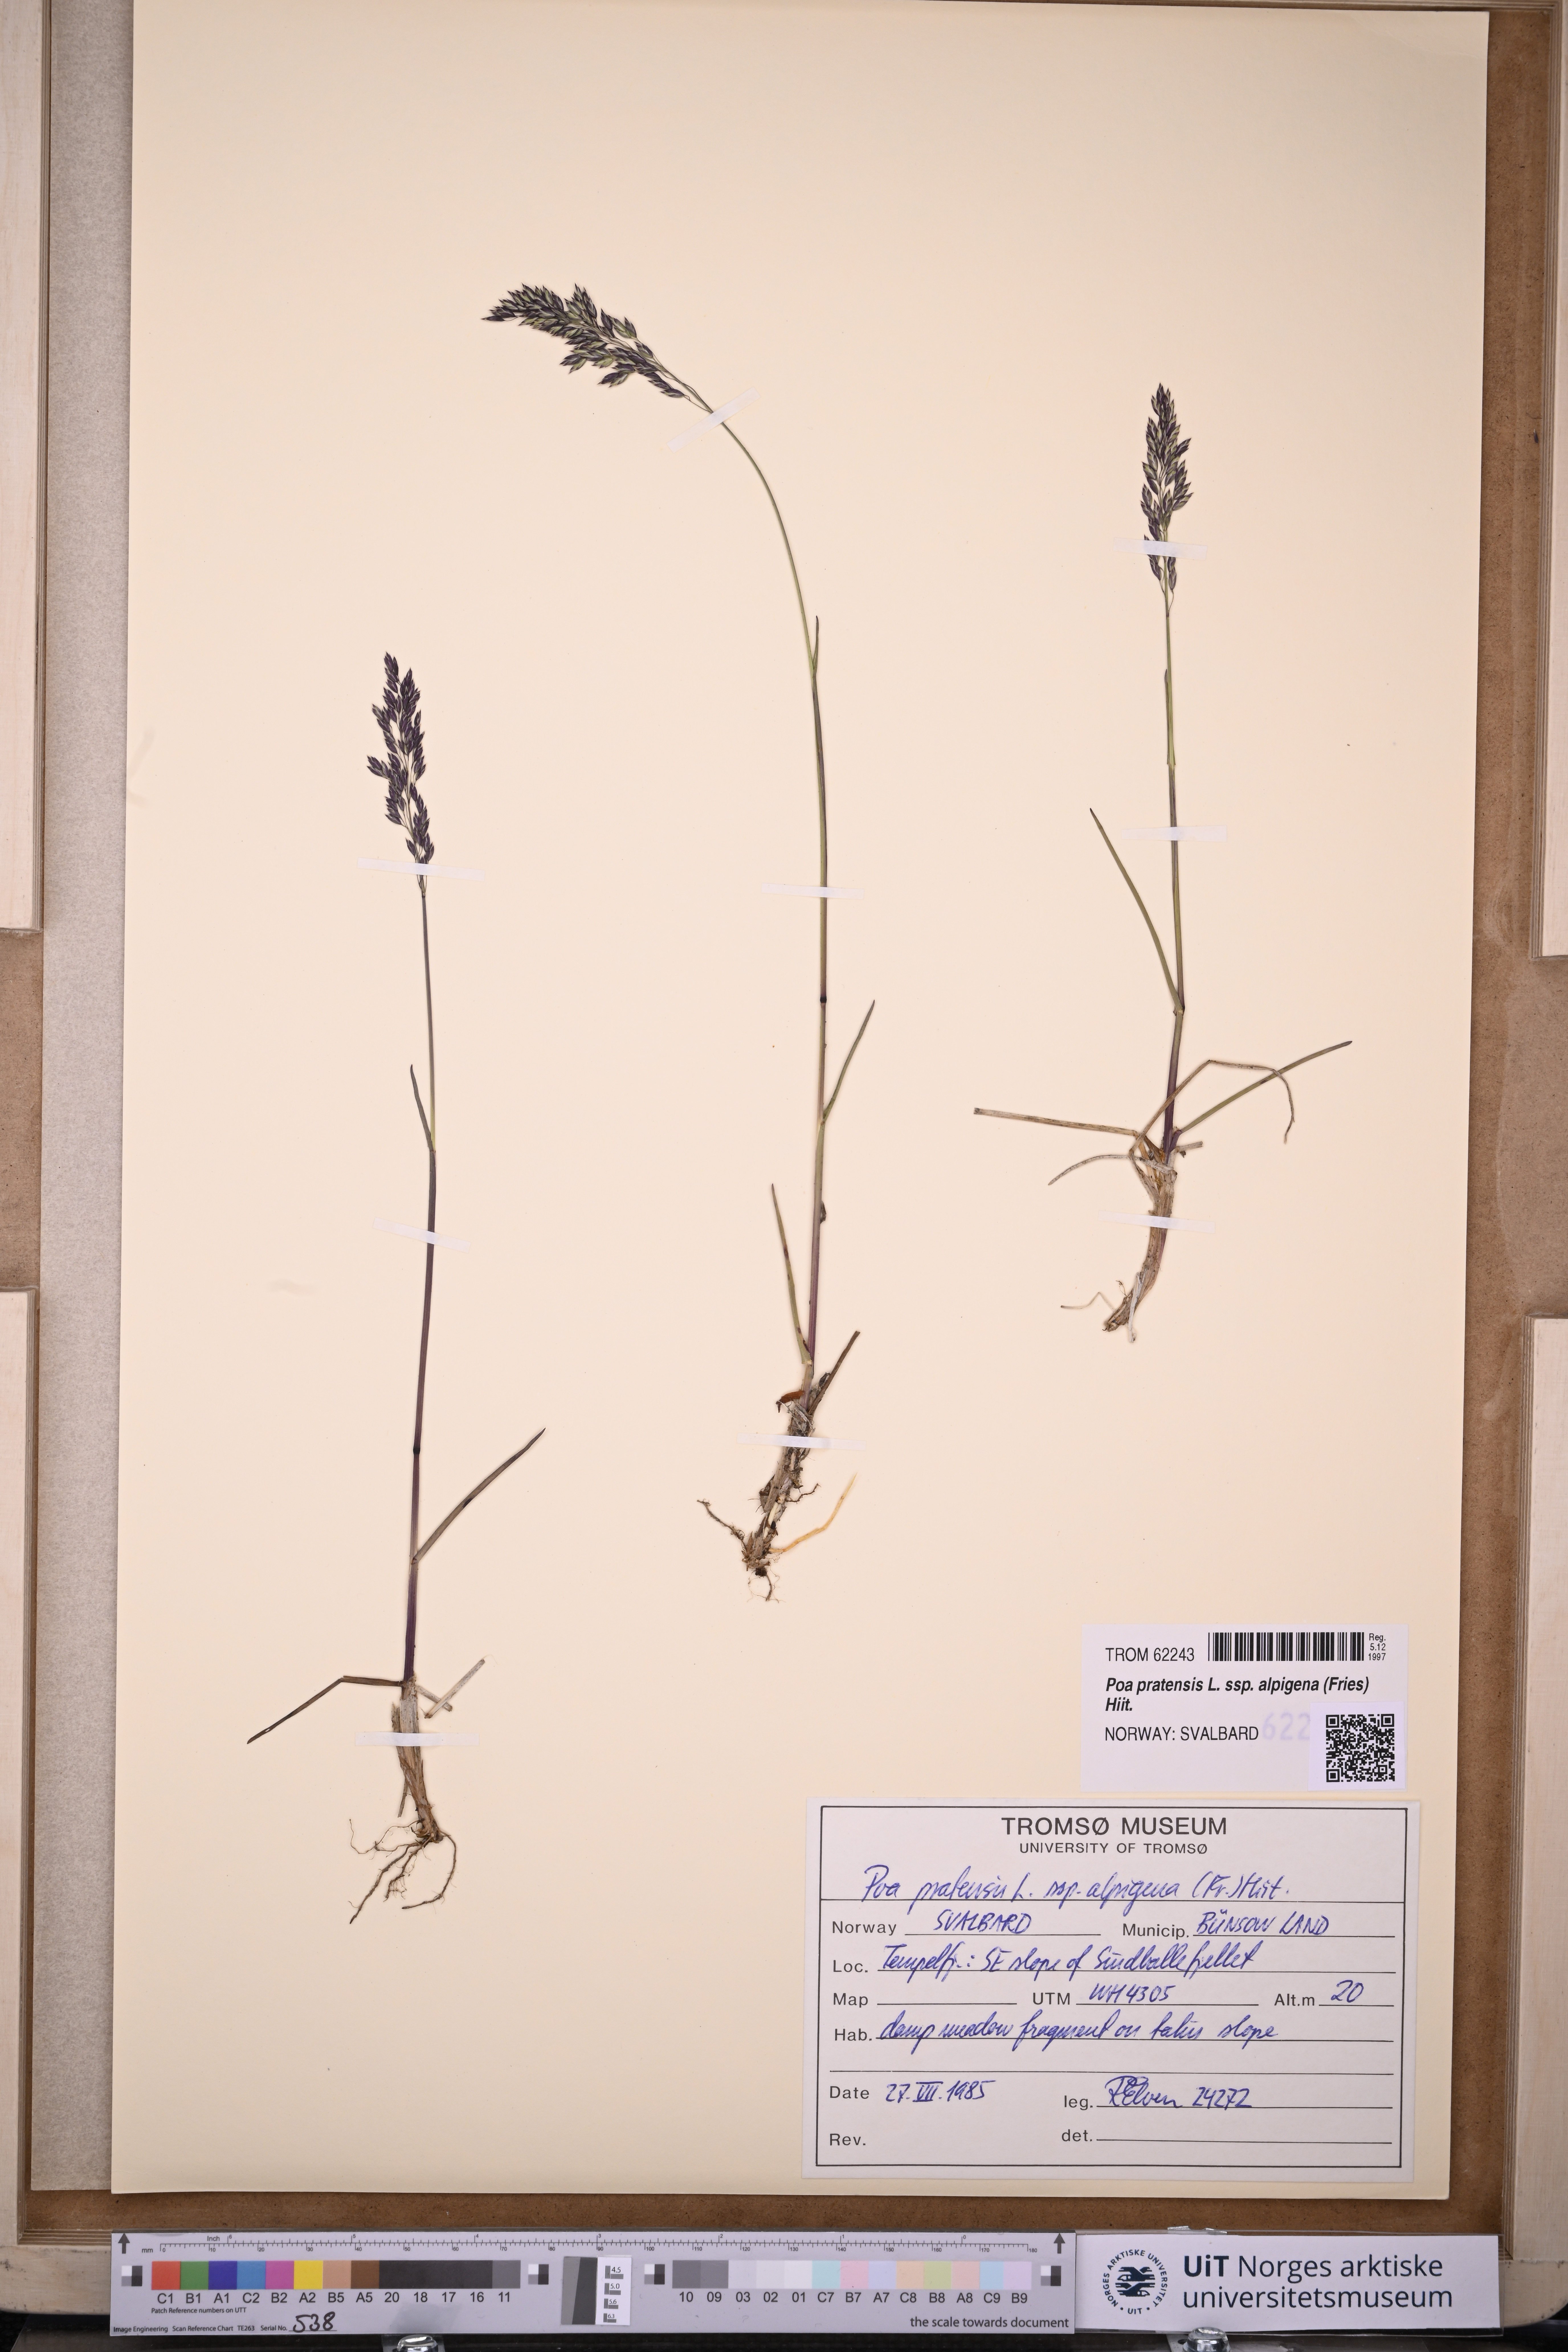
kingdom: Plantae
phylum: Tracheophyta
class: Liliopsida
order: Poales
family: Poaceae
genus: Poa
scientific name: Poa alpigena
